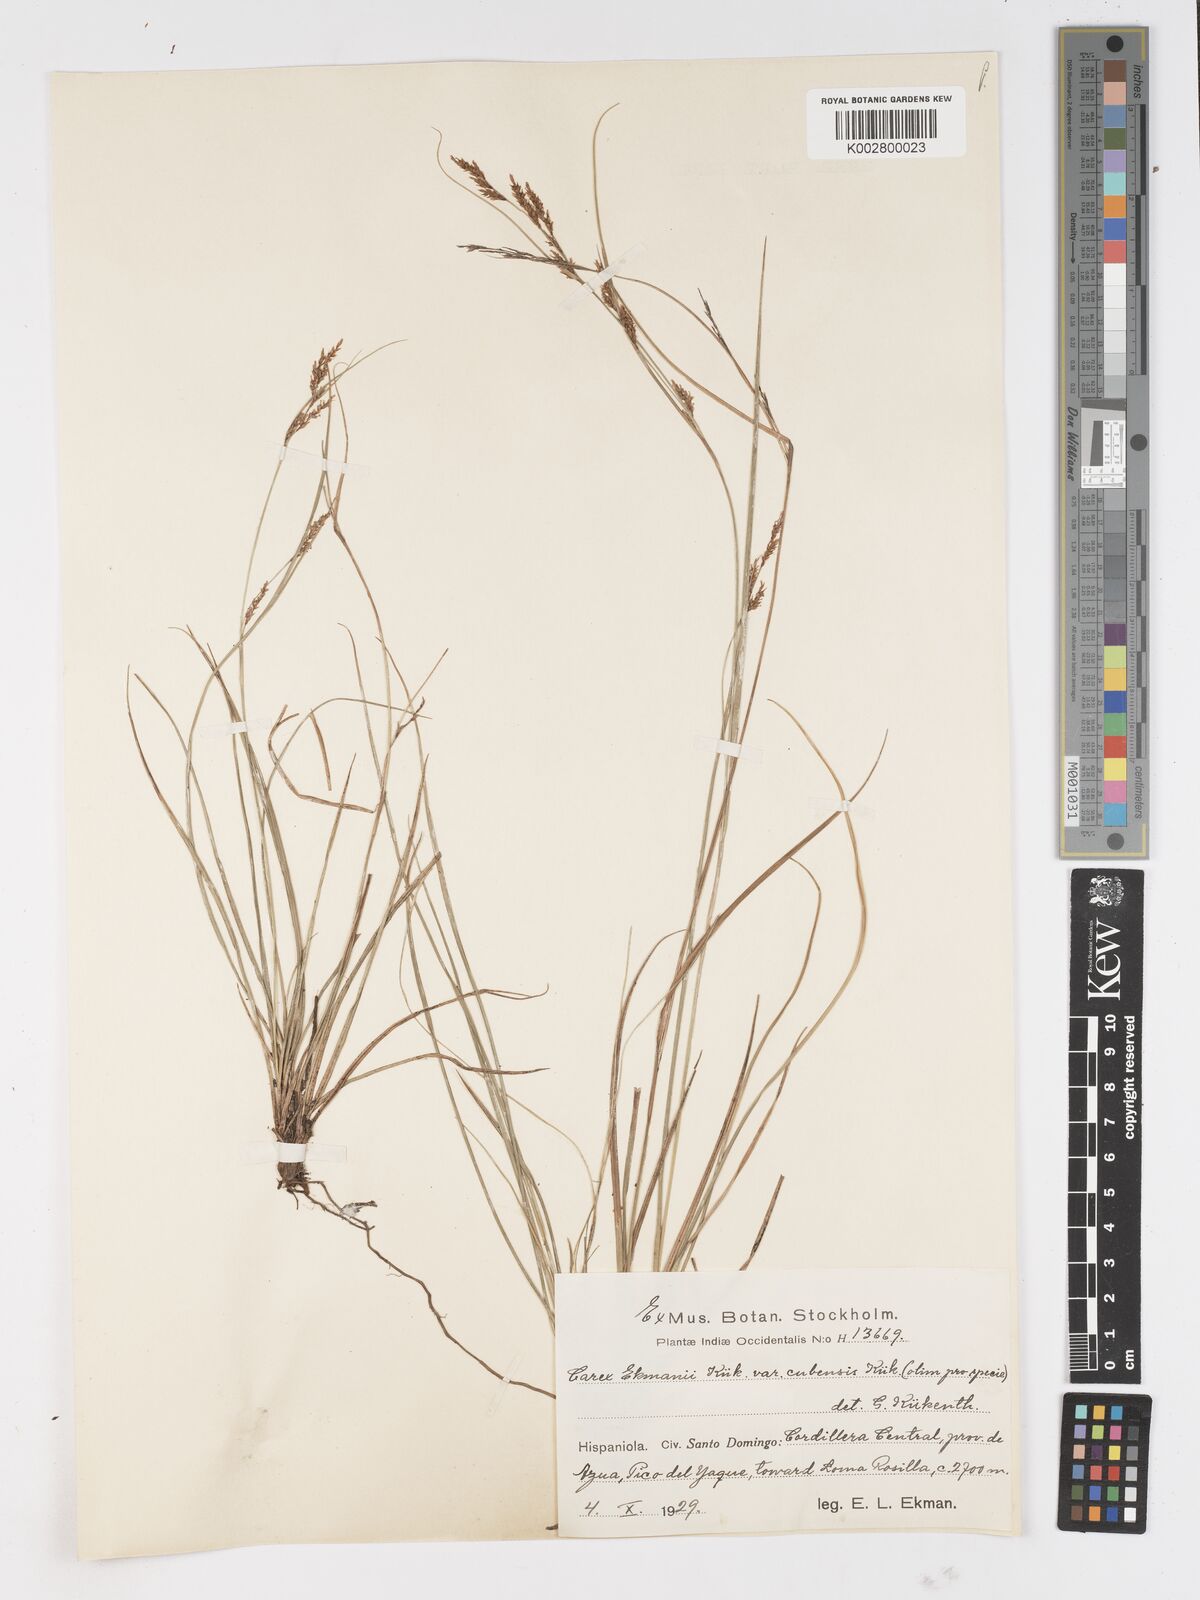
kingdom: Plantae
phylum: Tracheophyta
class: Liliopsida
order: Poales
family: Cyperaceae
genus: Carex
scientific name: Carex ekmanii
